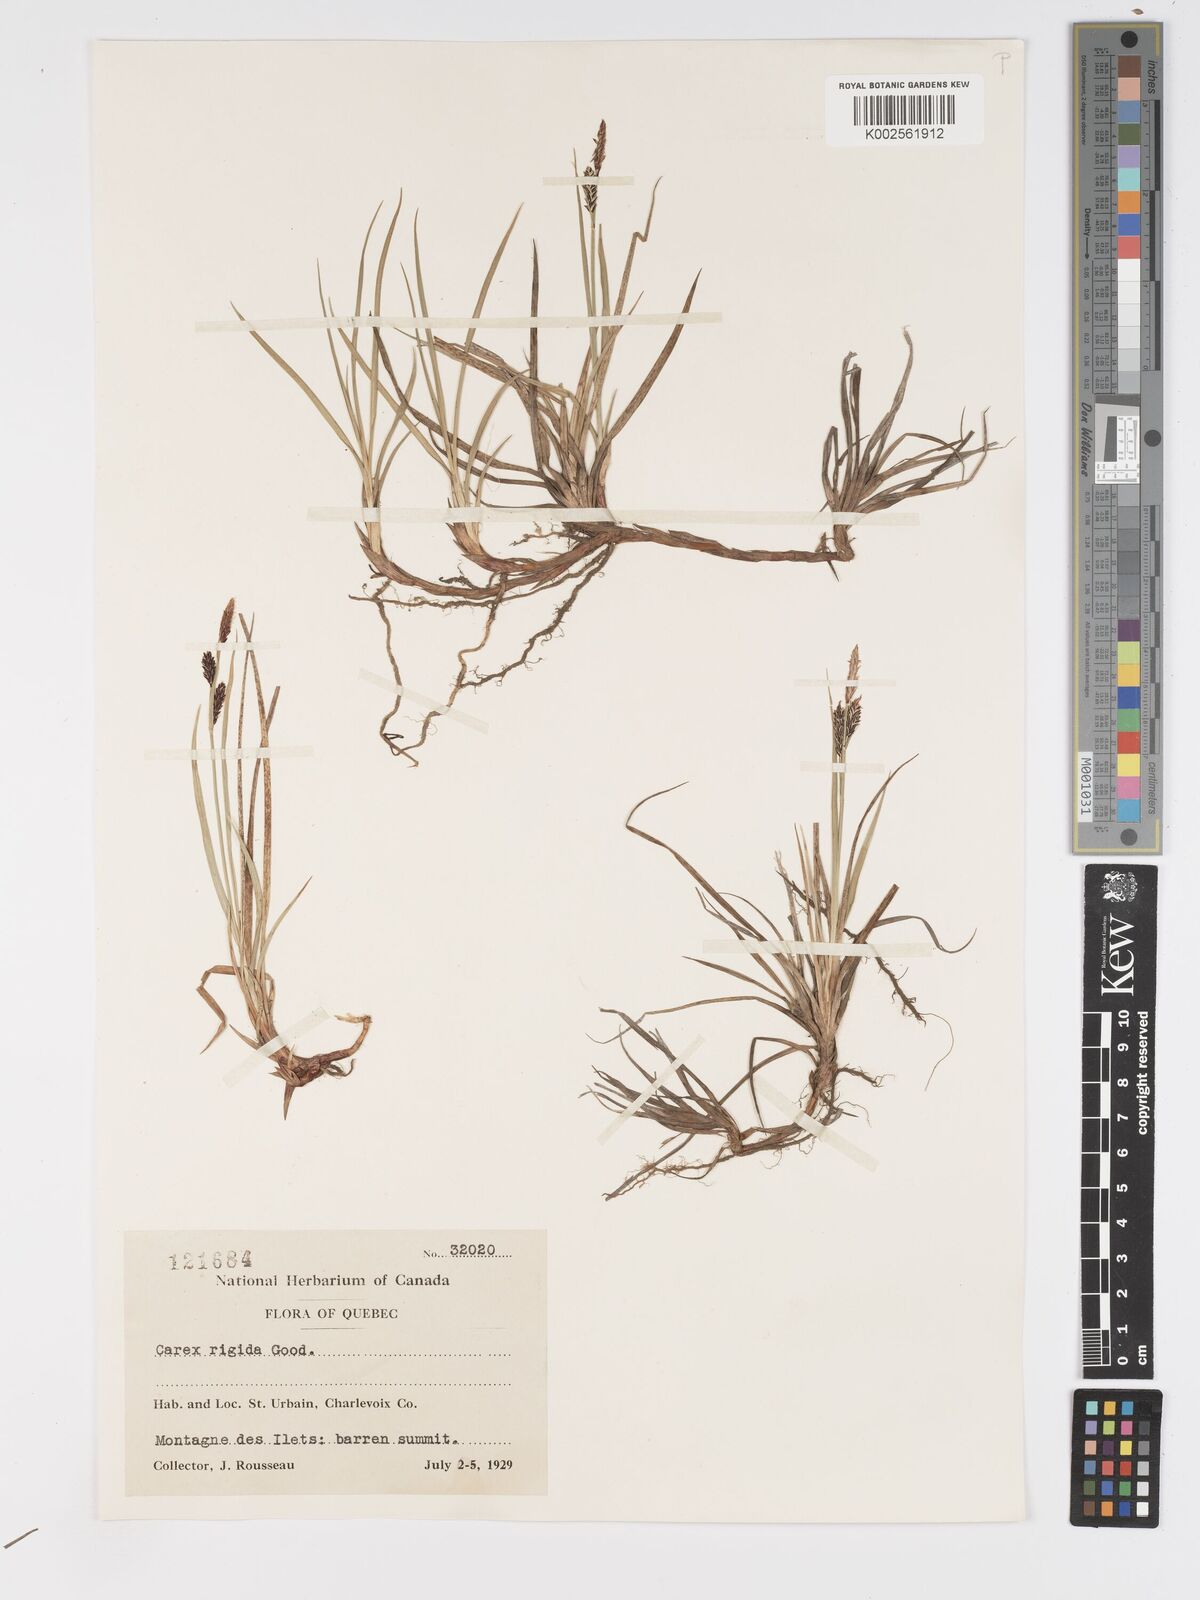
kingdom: Plantae
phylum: Tracheophyta
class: Liliopsida
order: Poales
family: Cyperaceae
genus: Carex
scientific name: Carex bigelowii
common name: Stiff sedge
